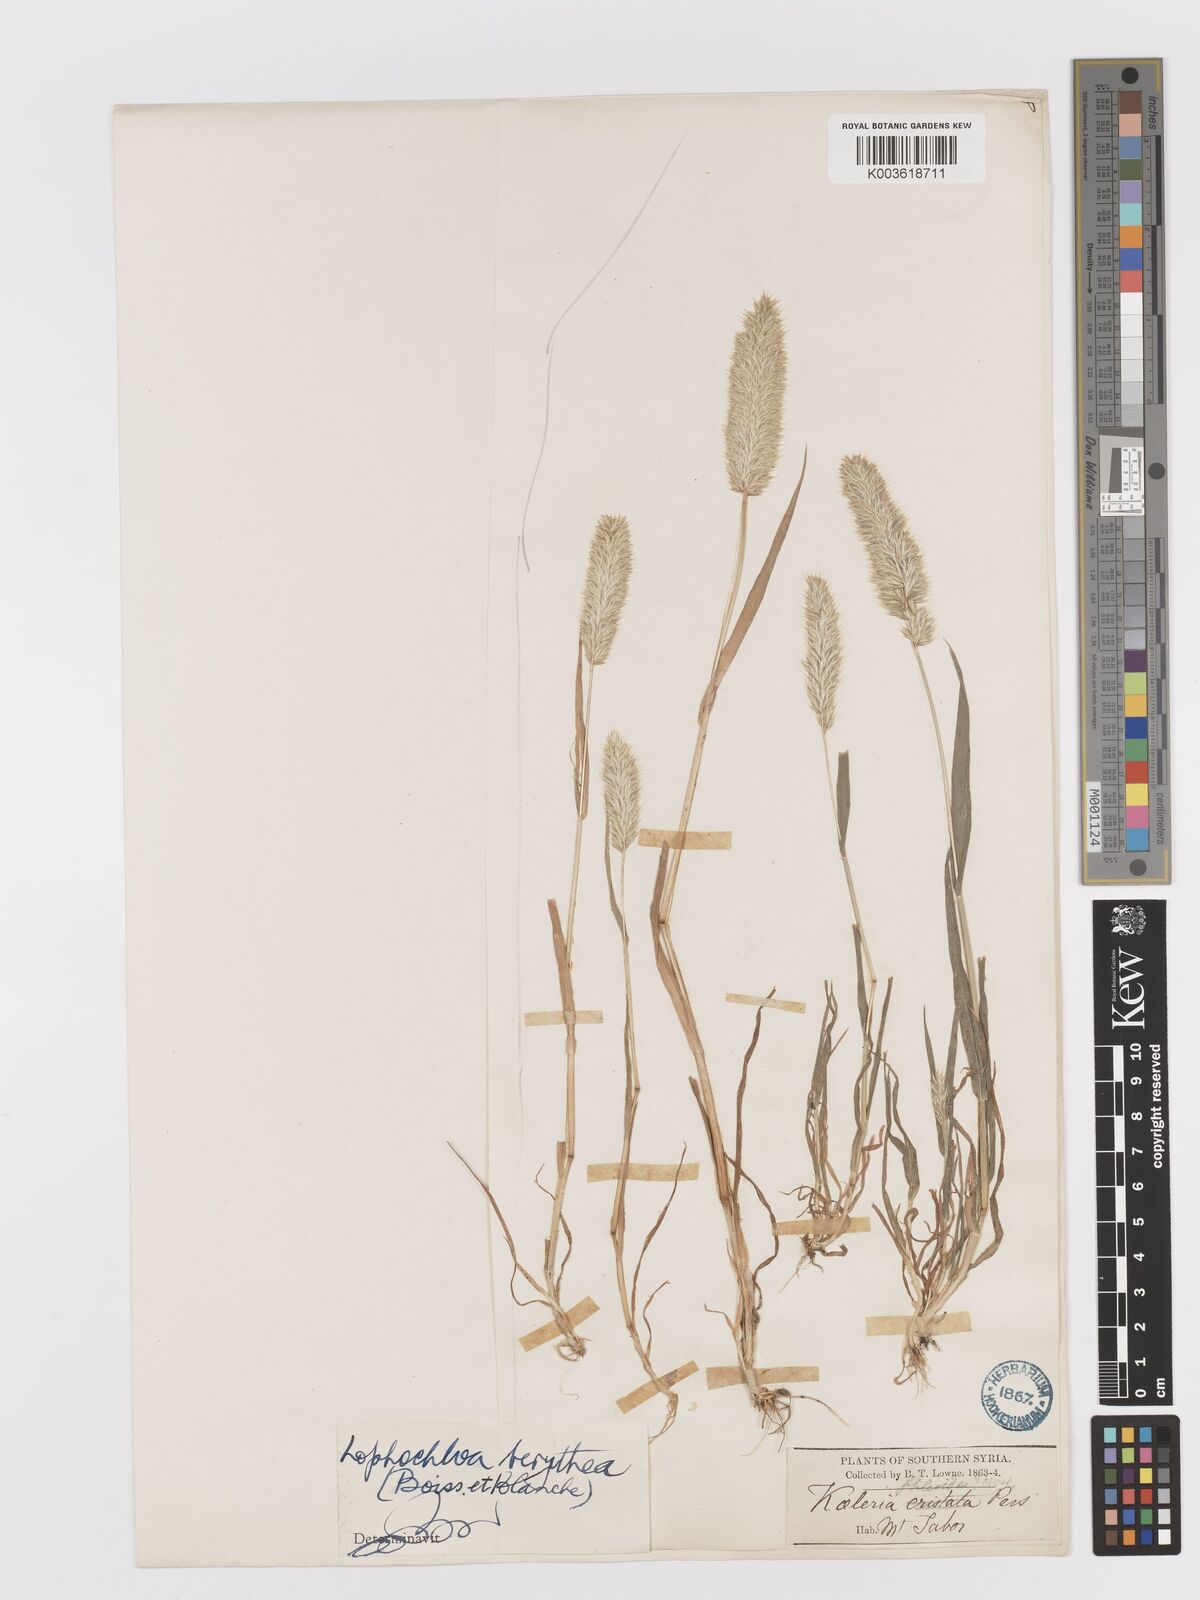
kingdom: Plantae
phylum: Tracheophyta
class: Liliopsida
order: Poales
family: Poaceae
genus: Rostraria
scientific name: Rostraria smyrnaea
